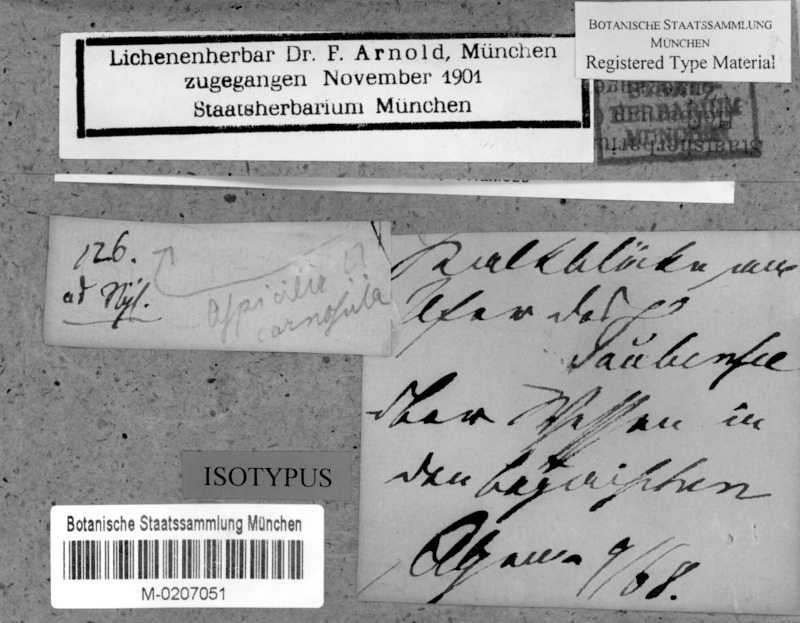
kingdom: Fungi
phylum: Ascomycota
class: Lecanoromycetes
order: Hymeneliales
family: Hymeneliaceae
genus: Hymenelia
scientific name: Hymenelia carnosula
